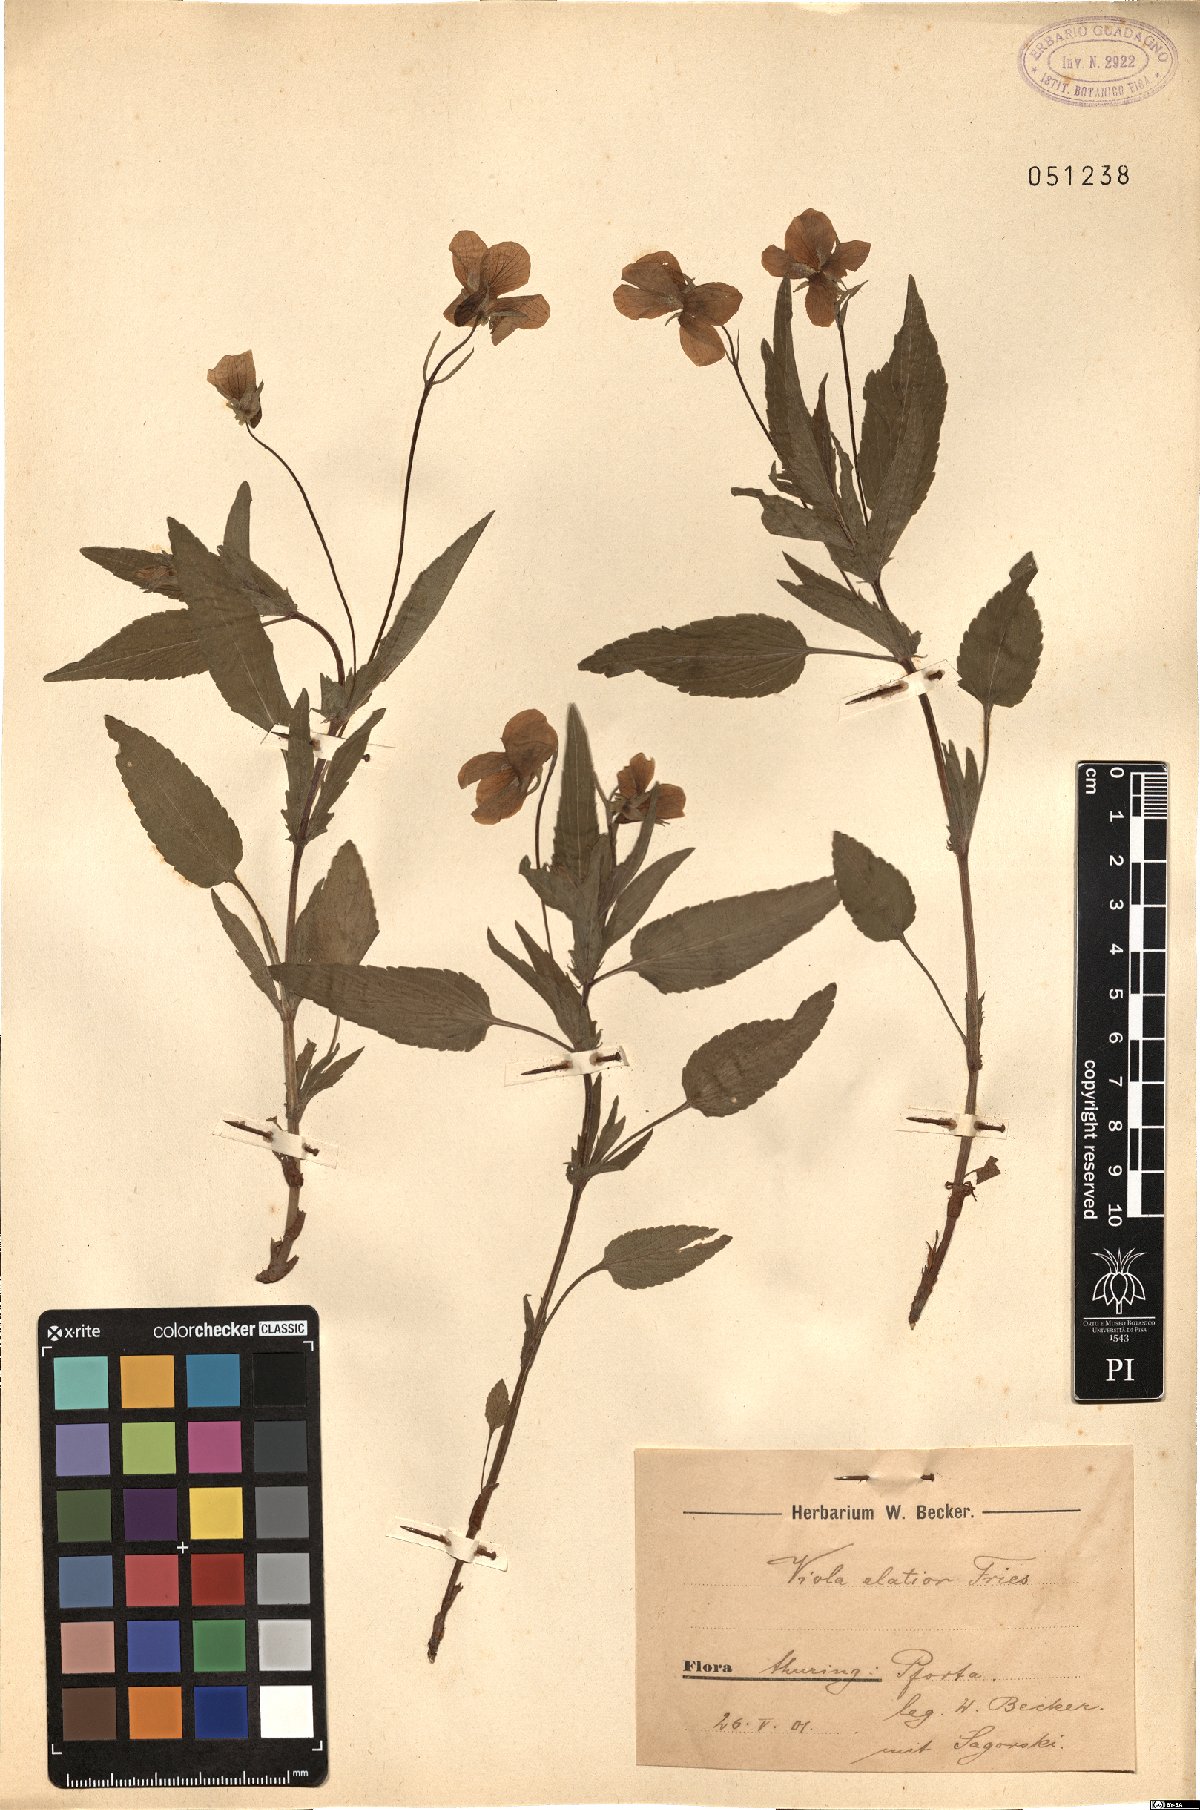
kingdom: Plantae
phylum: Tracheophyta
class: Magnoliopsida
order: Malpighiales
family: Violaceae
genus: Viola
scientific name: Viola elatior
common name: Tall violet
